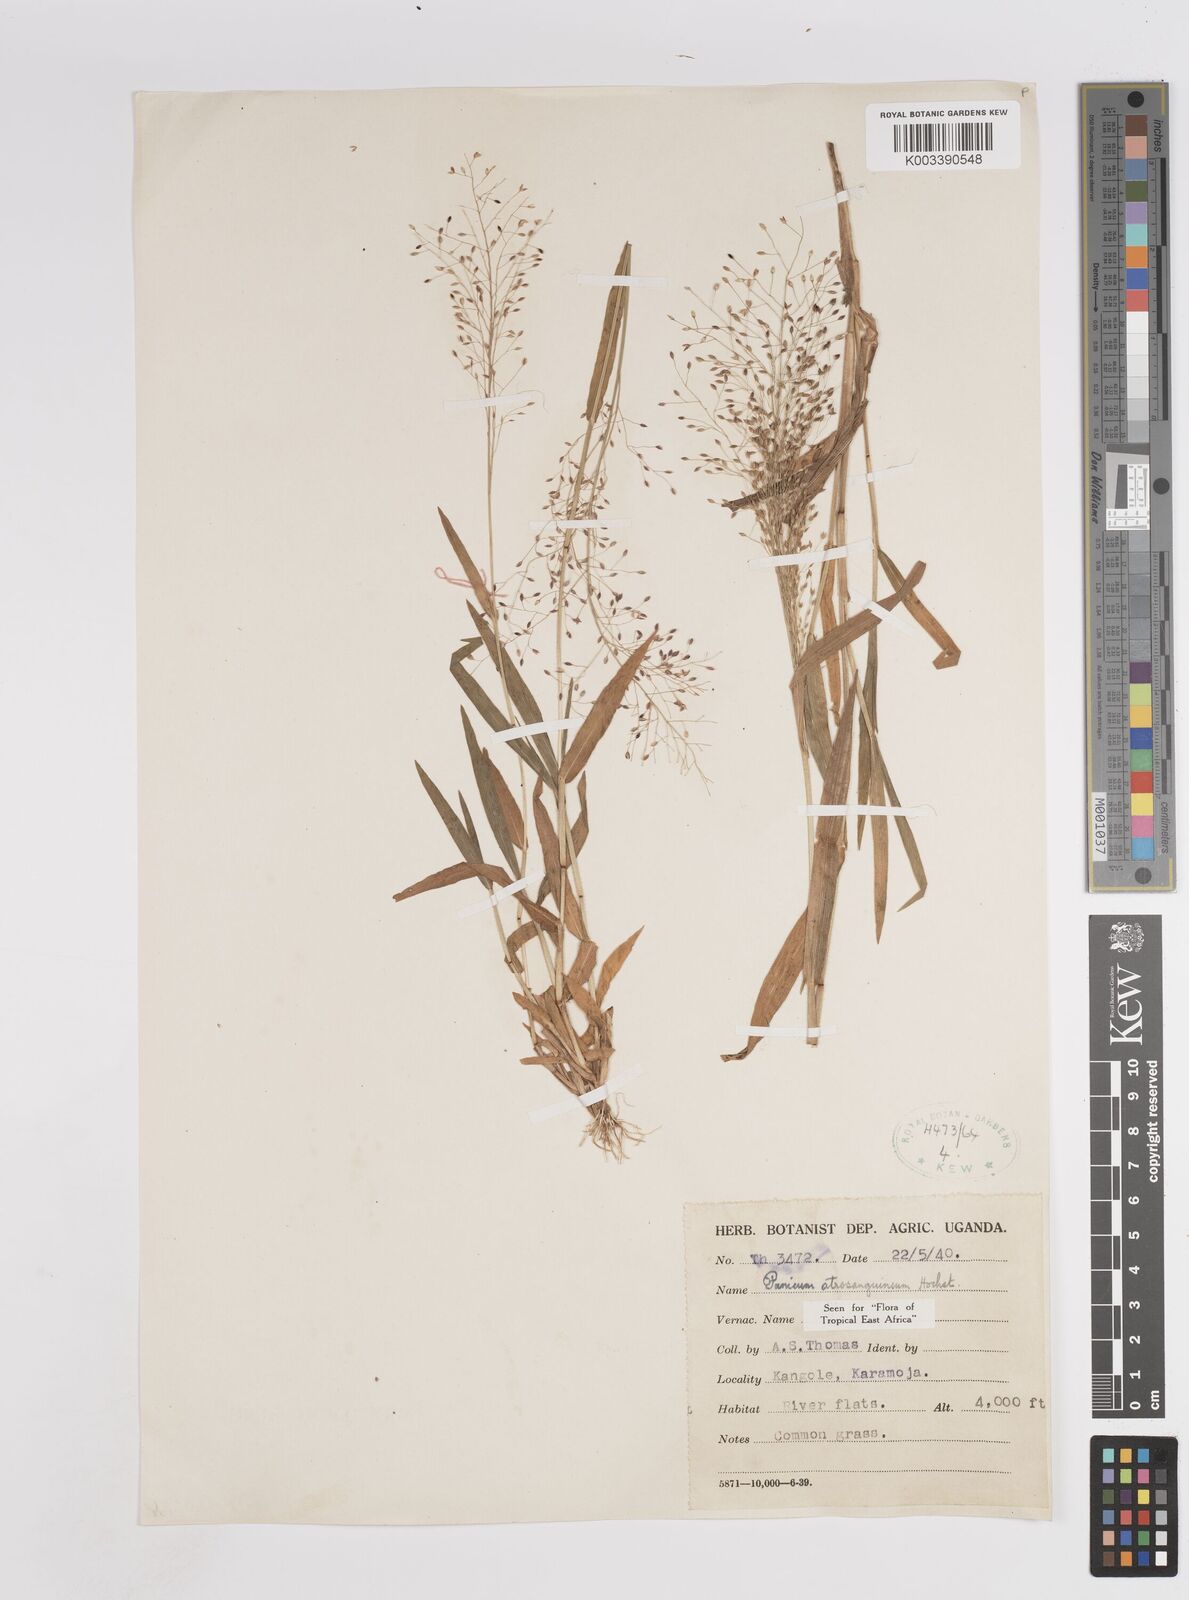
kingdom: Plantae
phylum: Tracheophyta
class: Liliopsida
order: Poales
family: Poaceae
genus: Panicum
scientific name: Panicum atrosanguineum
